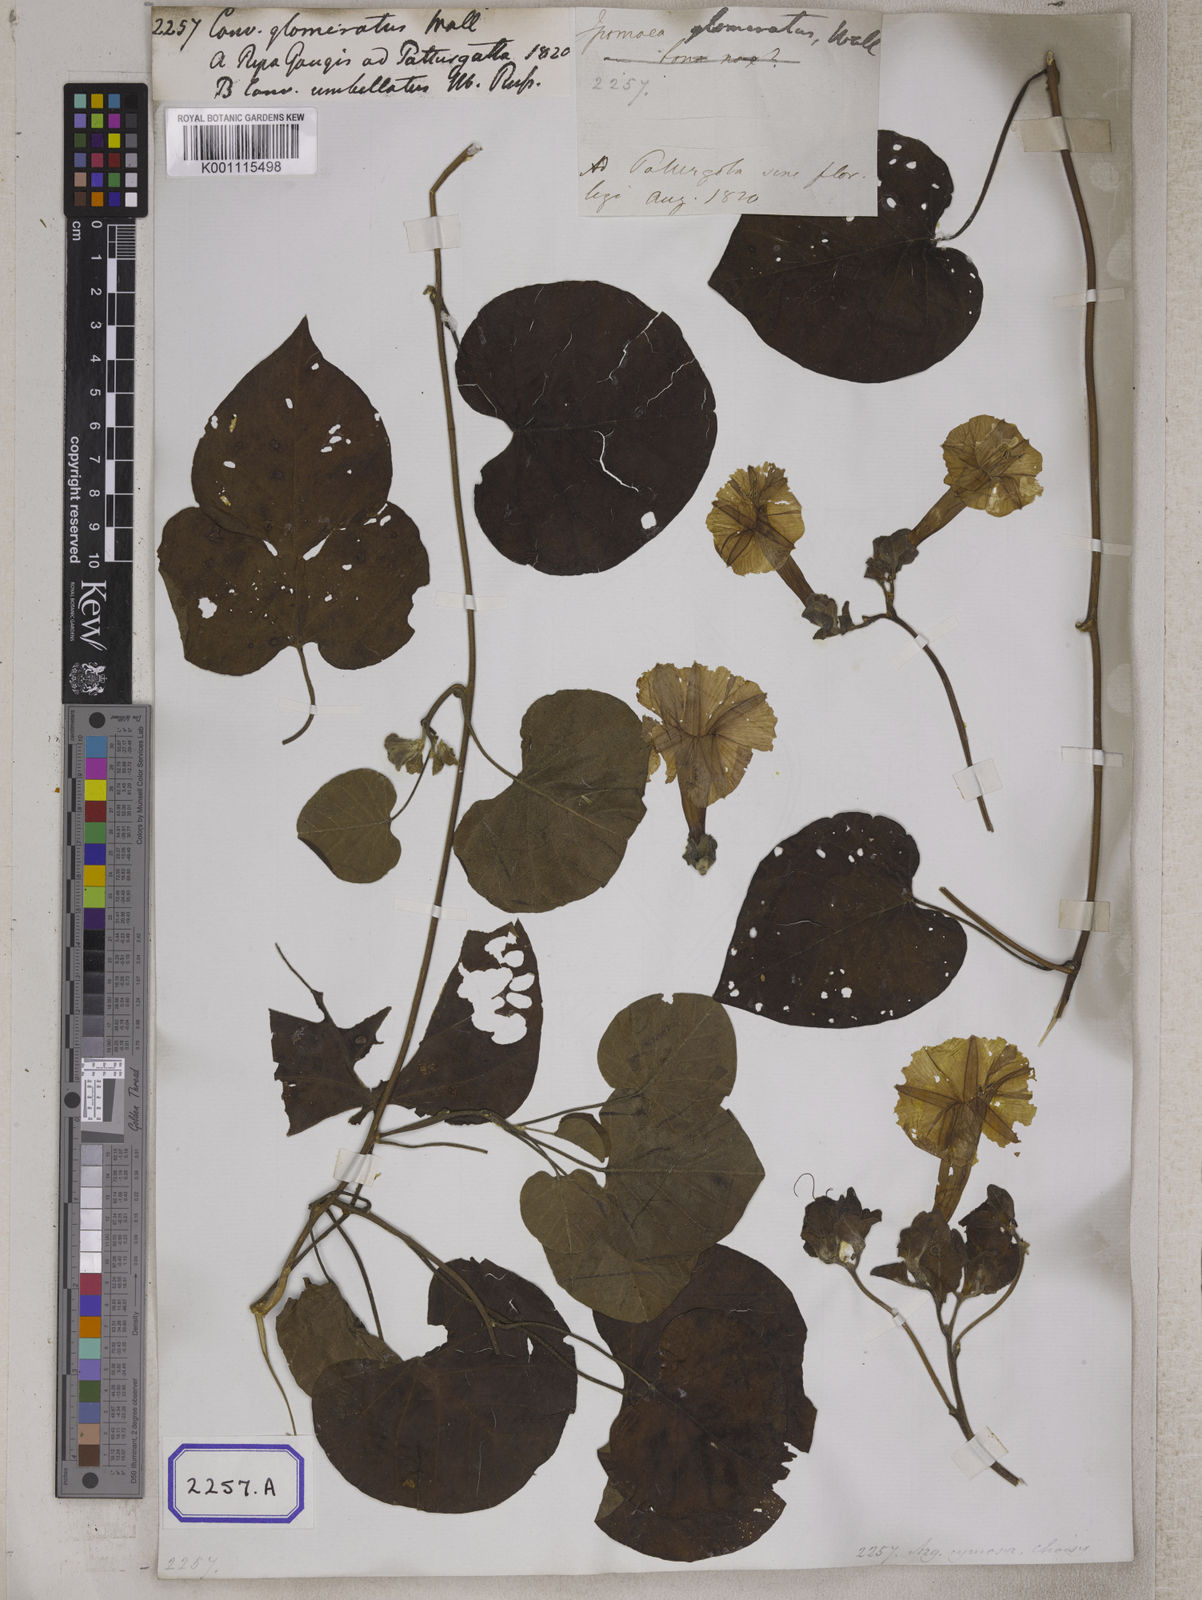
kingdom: Plantae
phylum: Tracheophyta
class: Magnoliopsida
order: Solanales
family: Convolvulaceae
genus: Convolvulus
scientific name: Convolvulus
